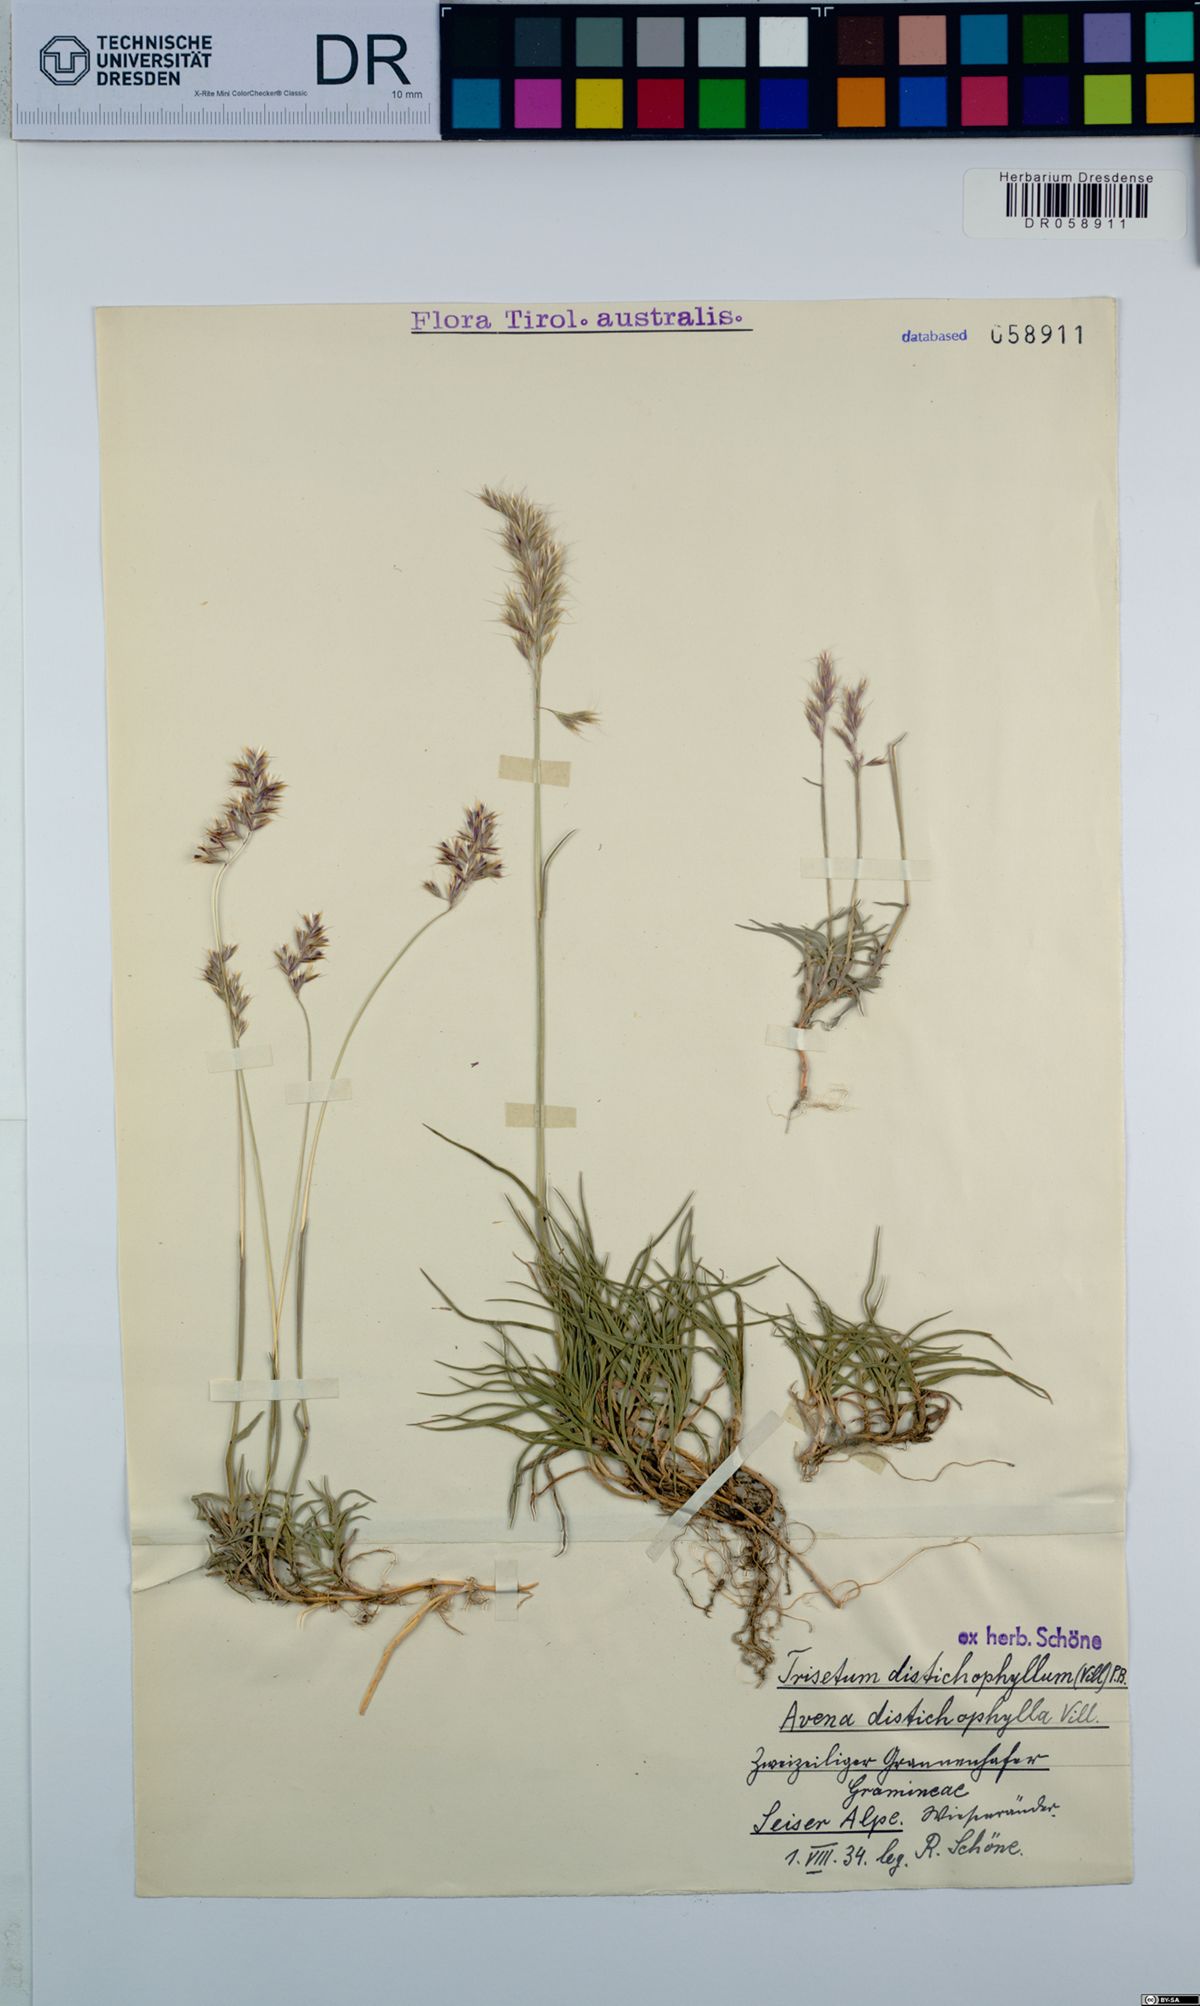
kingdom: Plantae
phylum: Tracheophyta
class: Liliopsida
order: Poales
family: Poaceae
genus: Acrospelion
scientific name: Acrospelion distichophyllum
